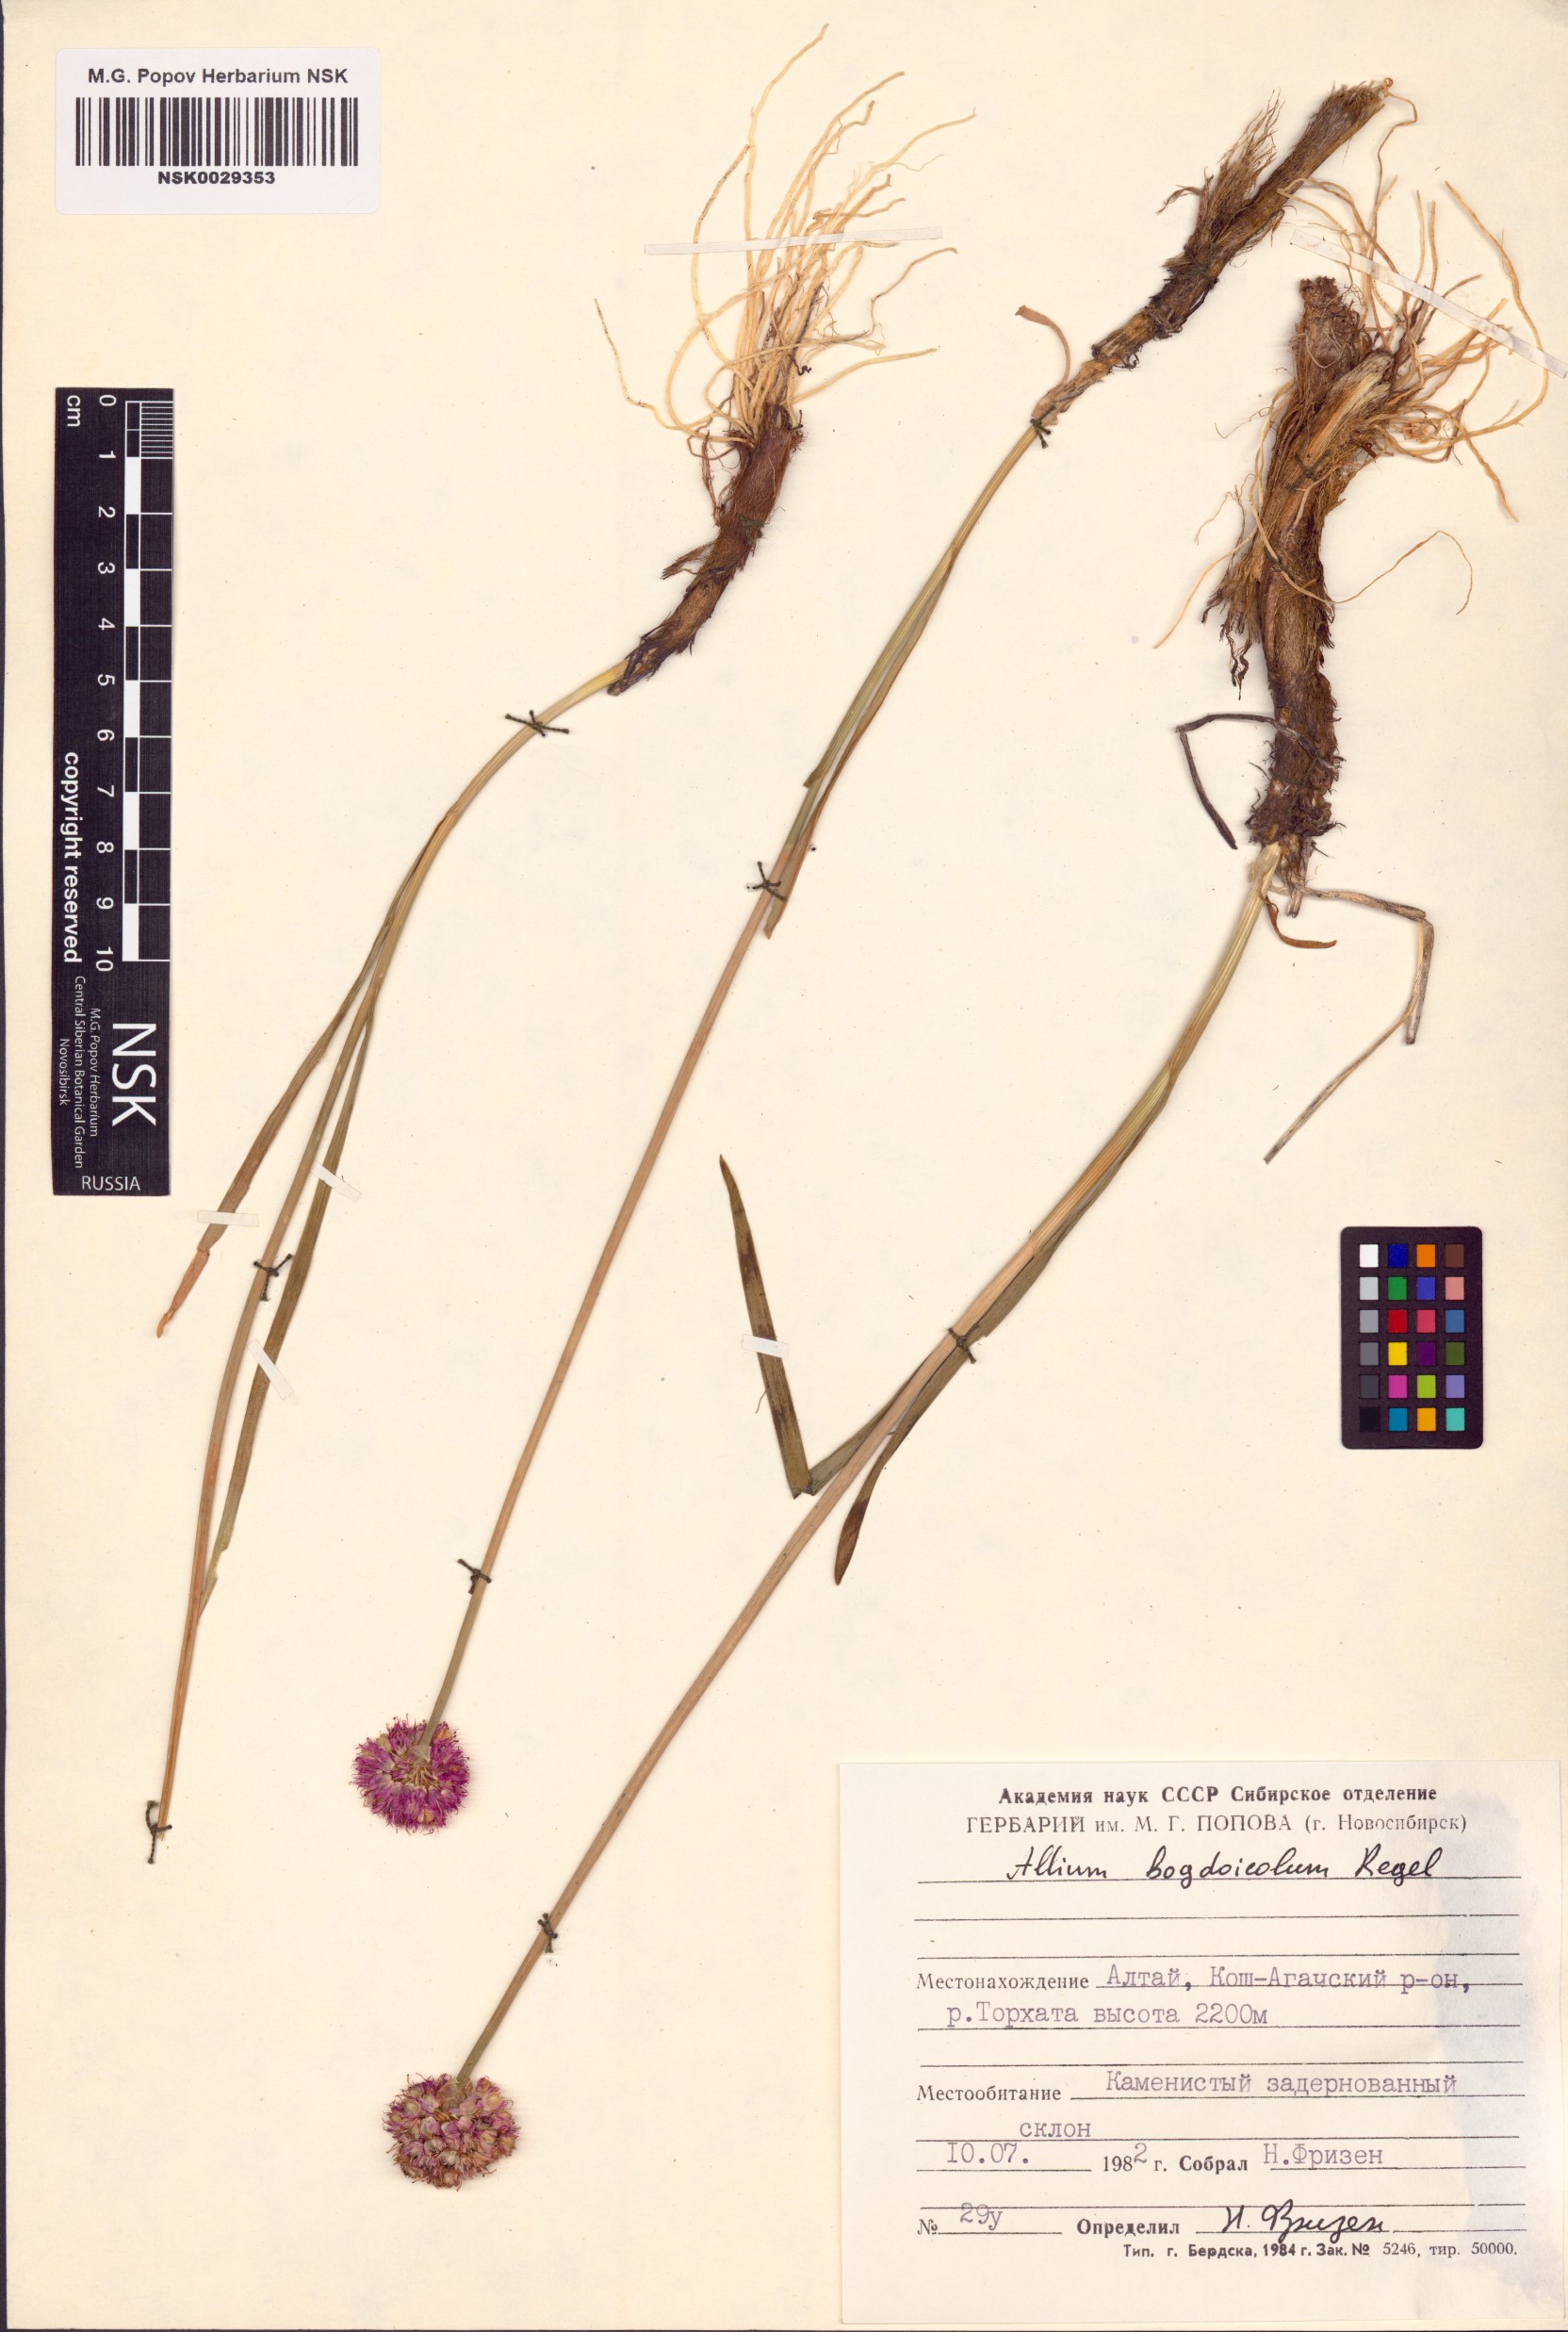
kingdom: Plantae
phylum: Tracheophyta
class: Liliopsida
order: Asparagales
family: Amaryllidaceae
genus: Allium
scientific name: Allium schrenkii
